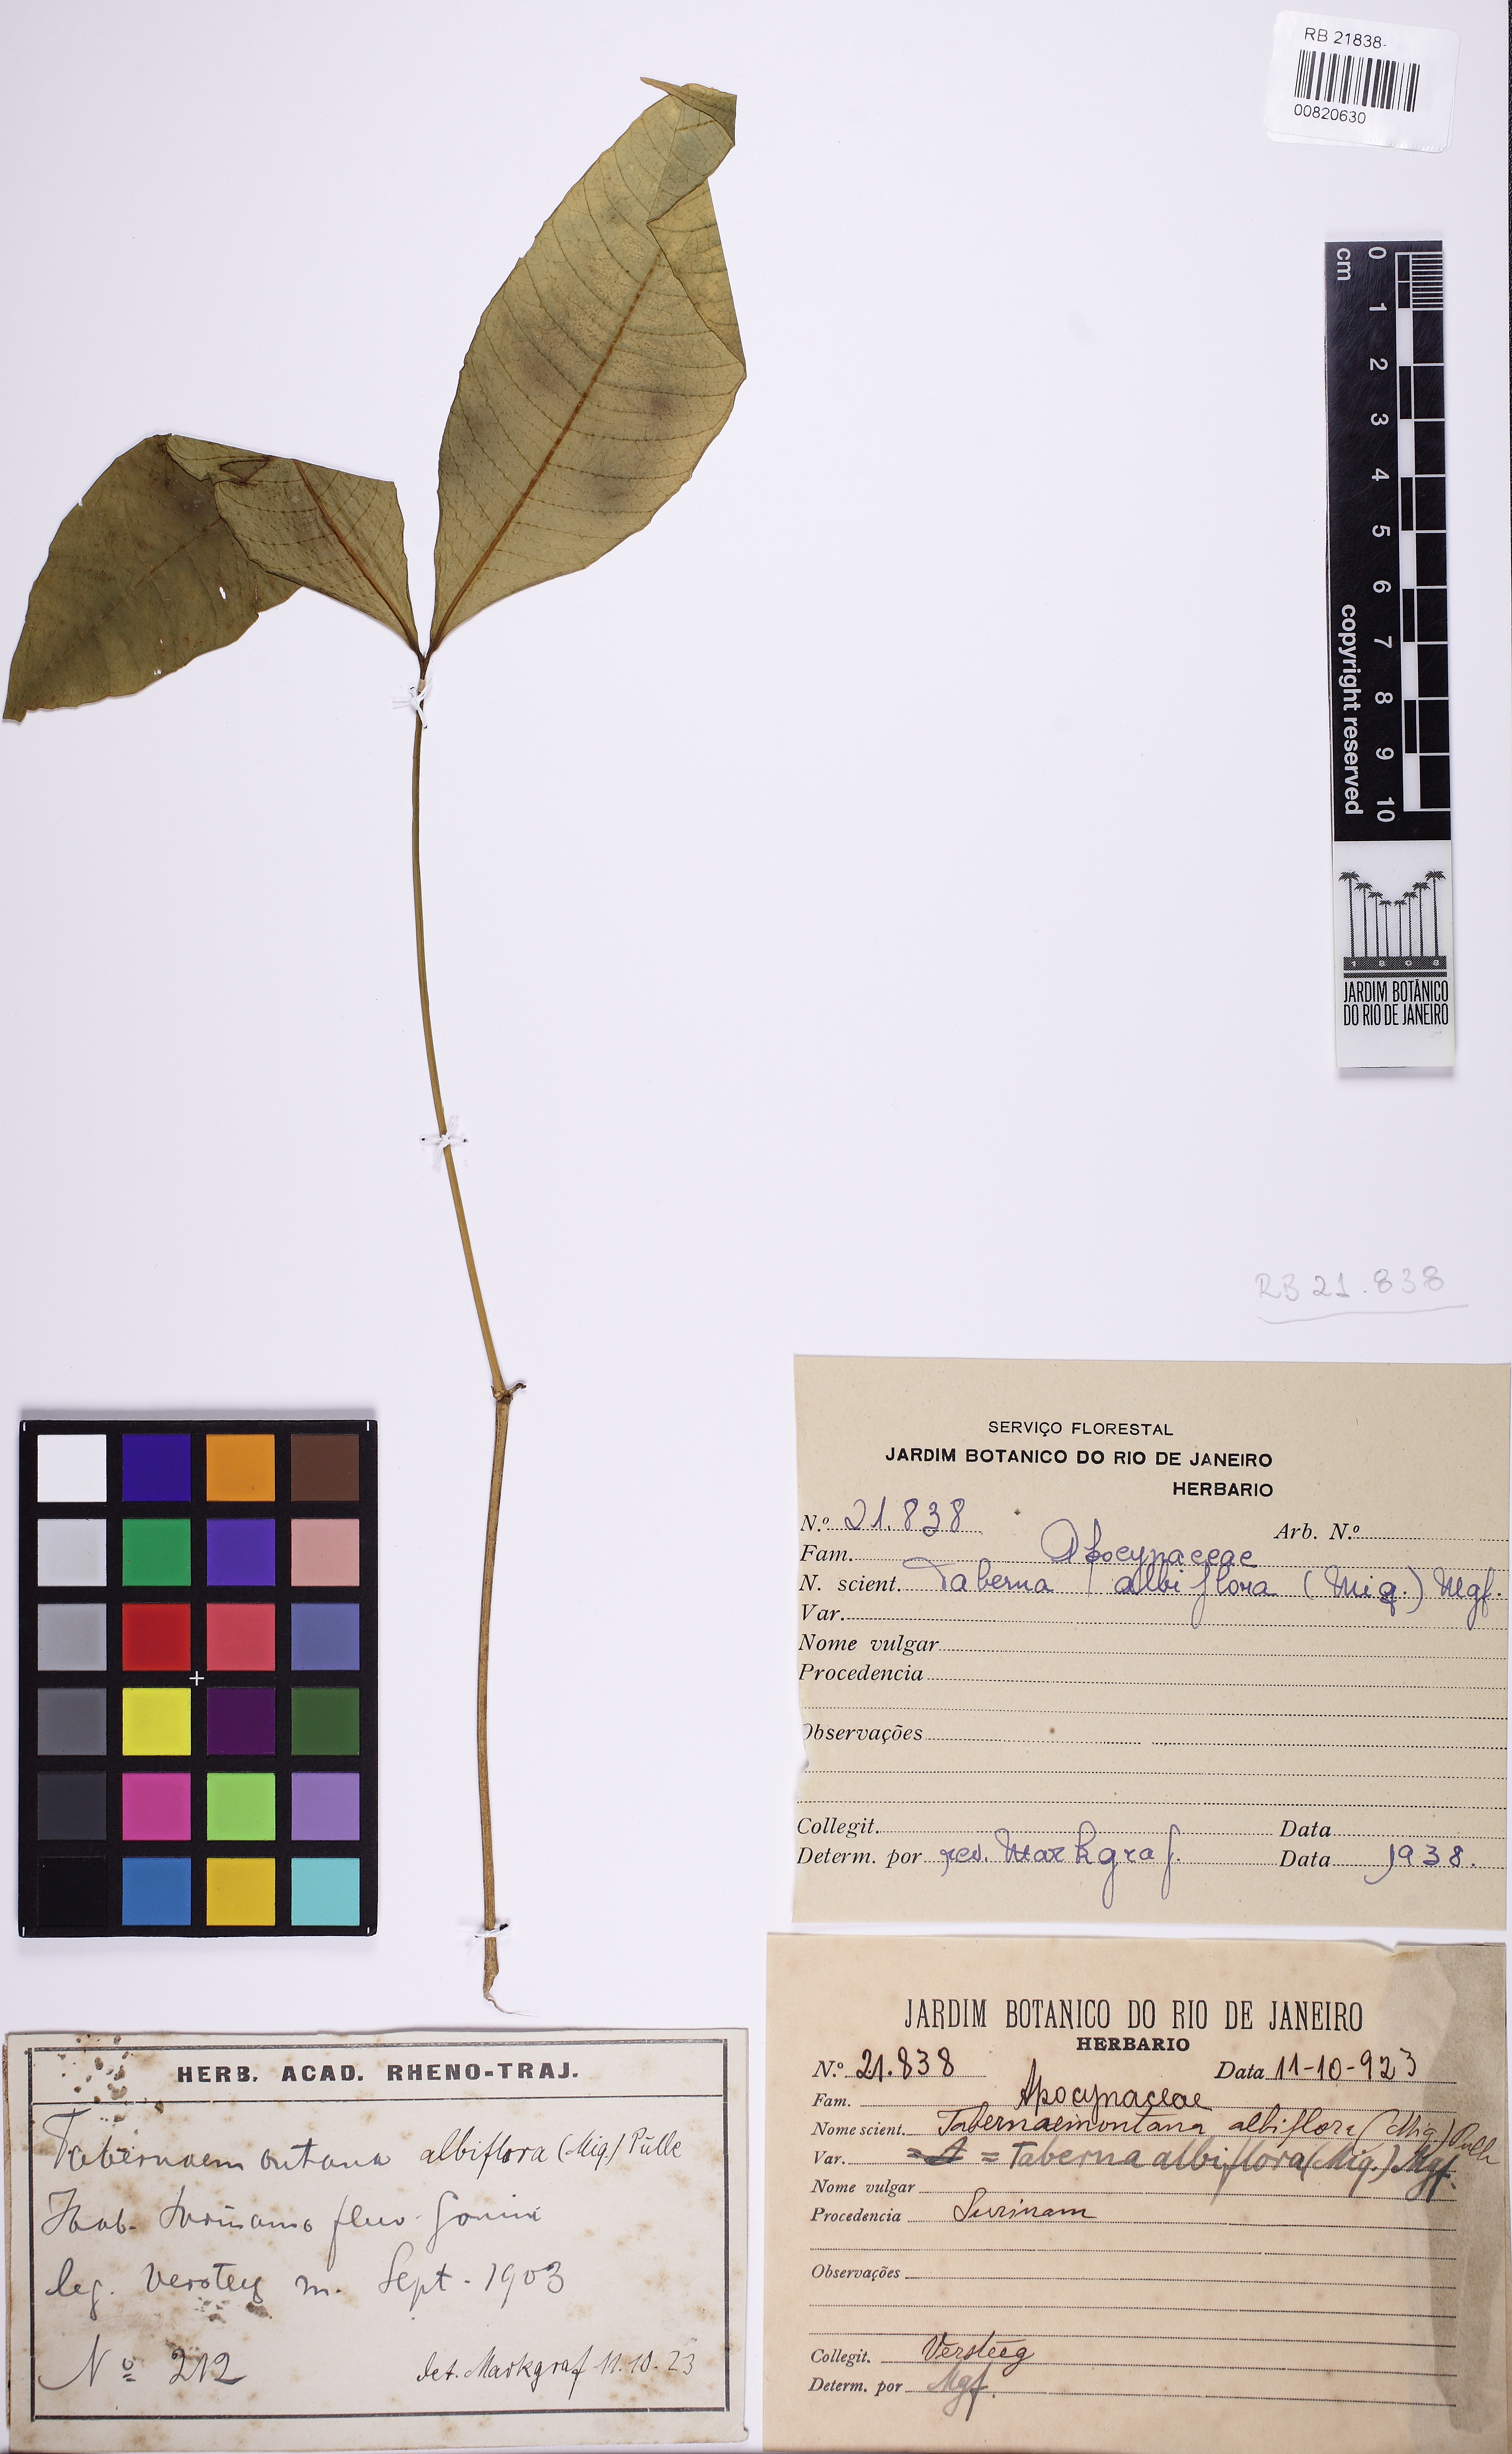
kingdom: Plantae
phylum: Tracheophyta
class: Magnoliopsida
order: Gentianales
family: Apocynaceae
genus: Tabernaemontana
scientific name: Tabernaemontana albiflora
